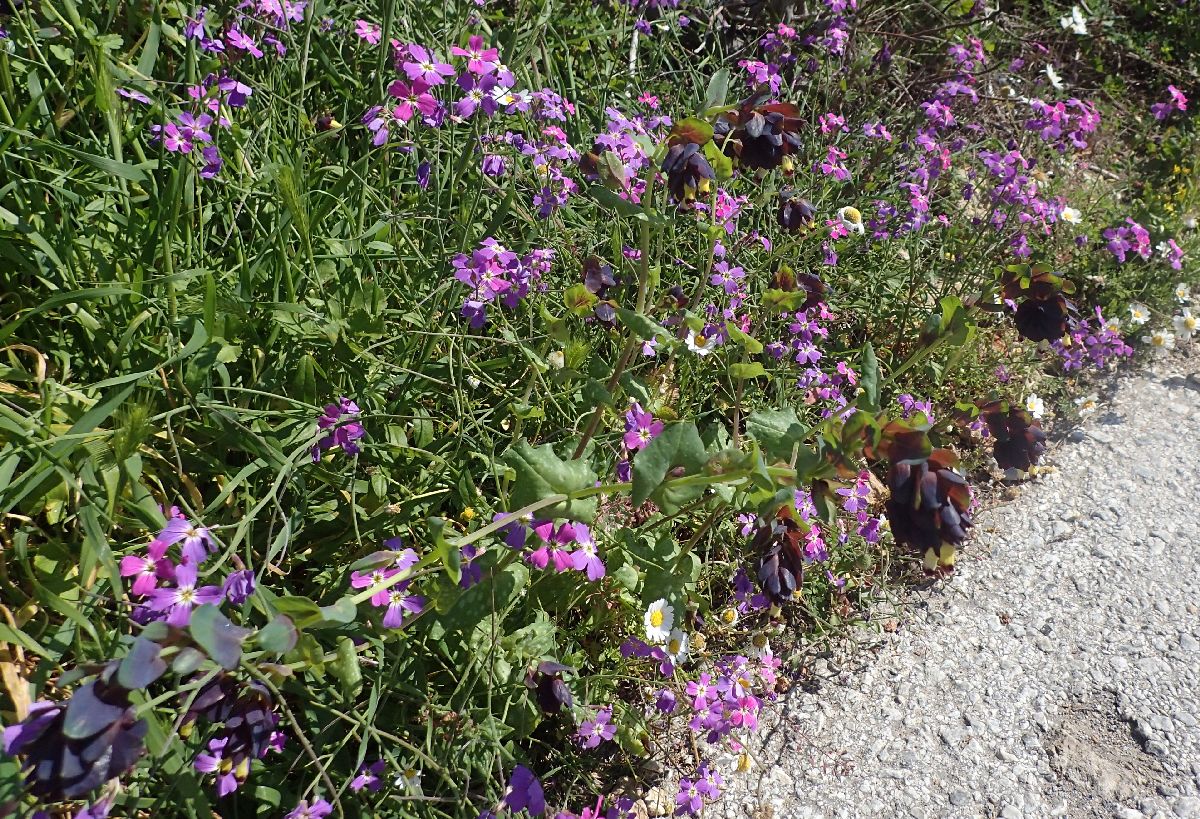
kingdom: Plantae
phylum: Tracheophyta
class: Magnoliopsida
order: Brassicales
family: Brassicaceae
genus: Malcolmia
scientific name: Malcolmia maritima
